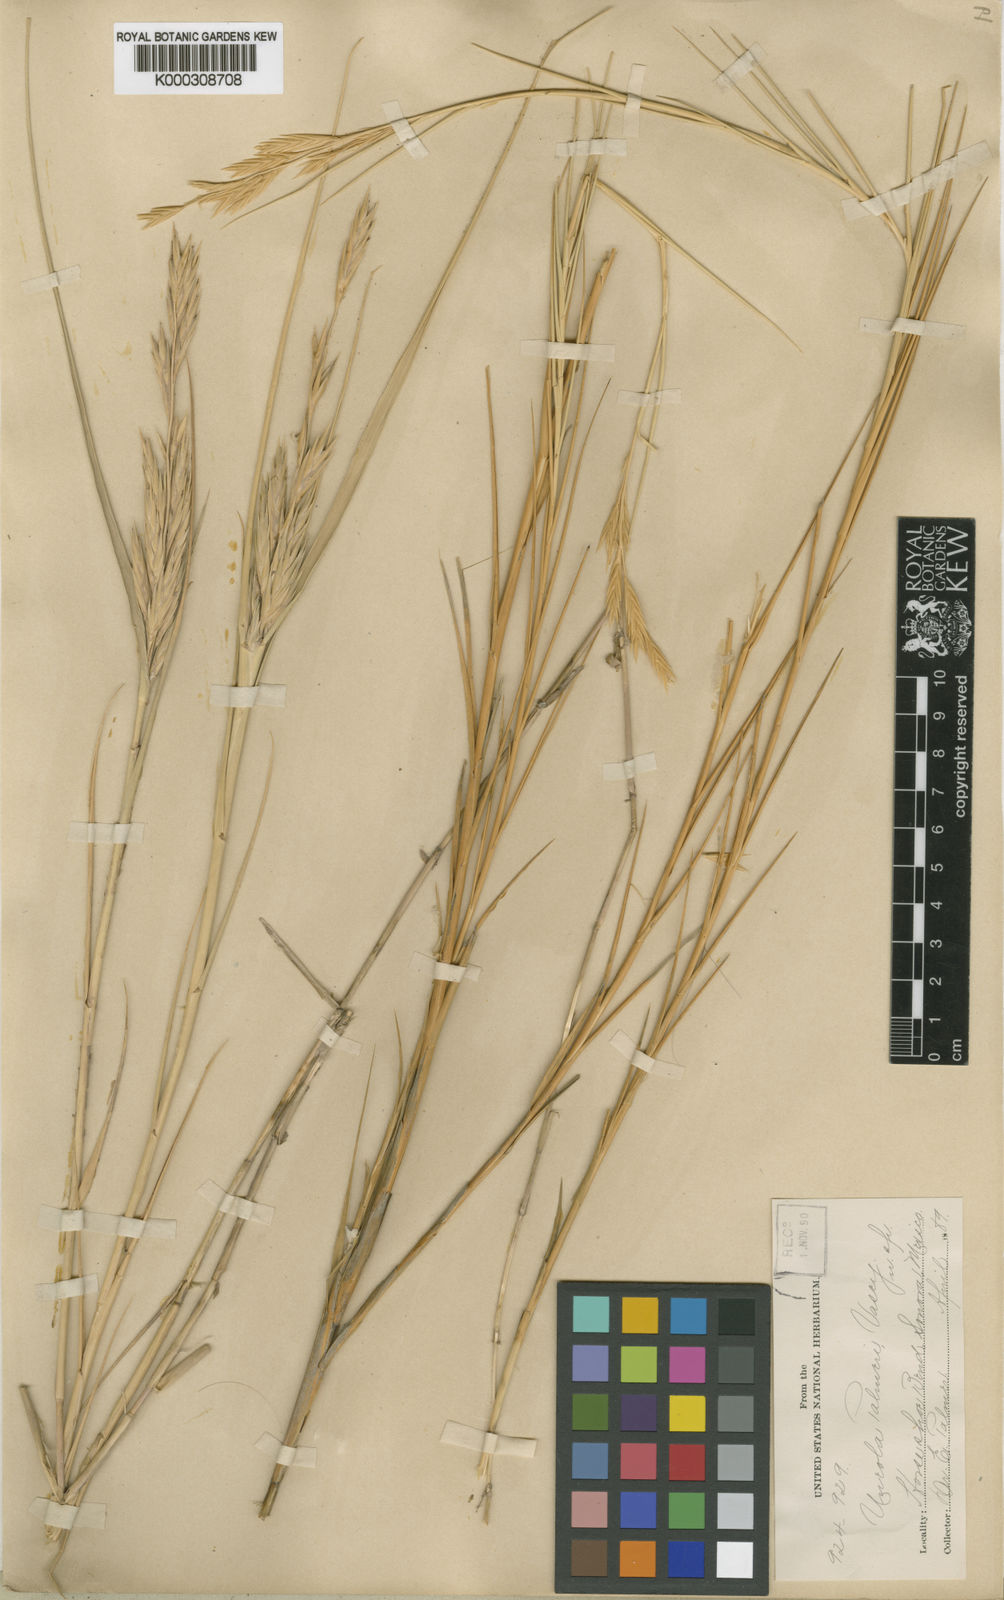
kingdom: Plantae
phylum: Tracheophyta
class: Liliopsida
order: Poales
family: Poaceae
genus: Distichlis
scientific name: Distichlis palmeri
